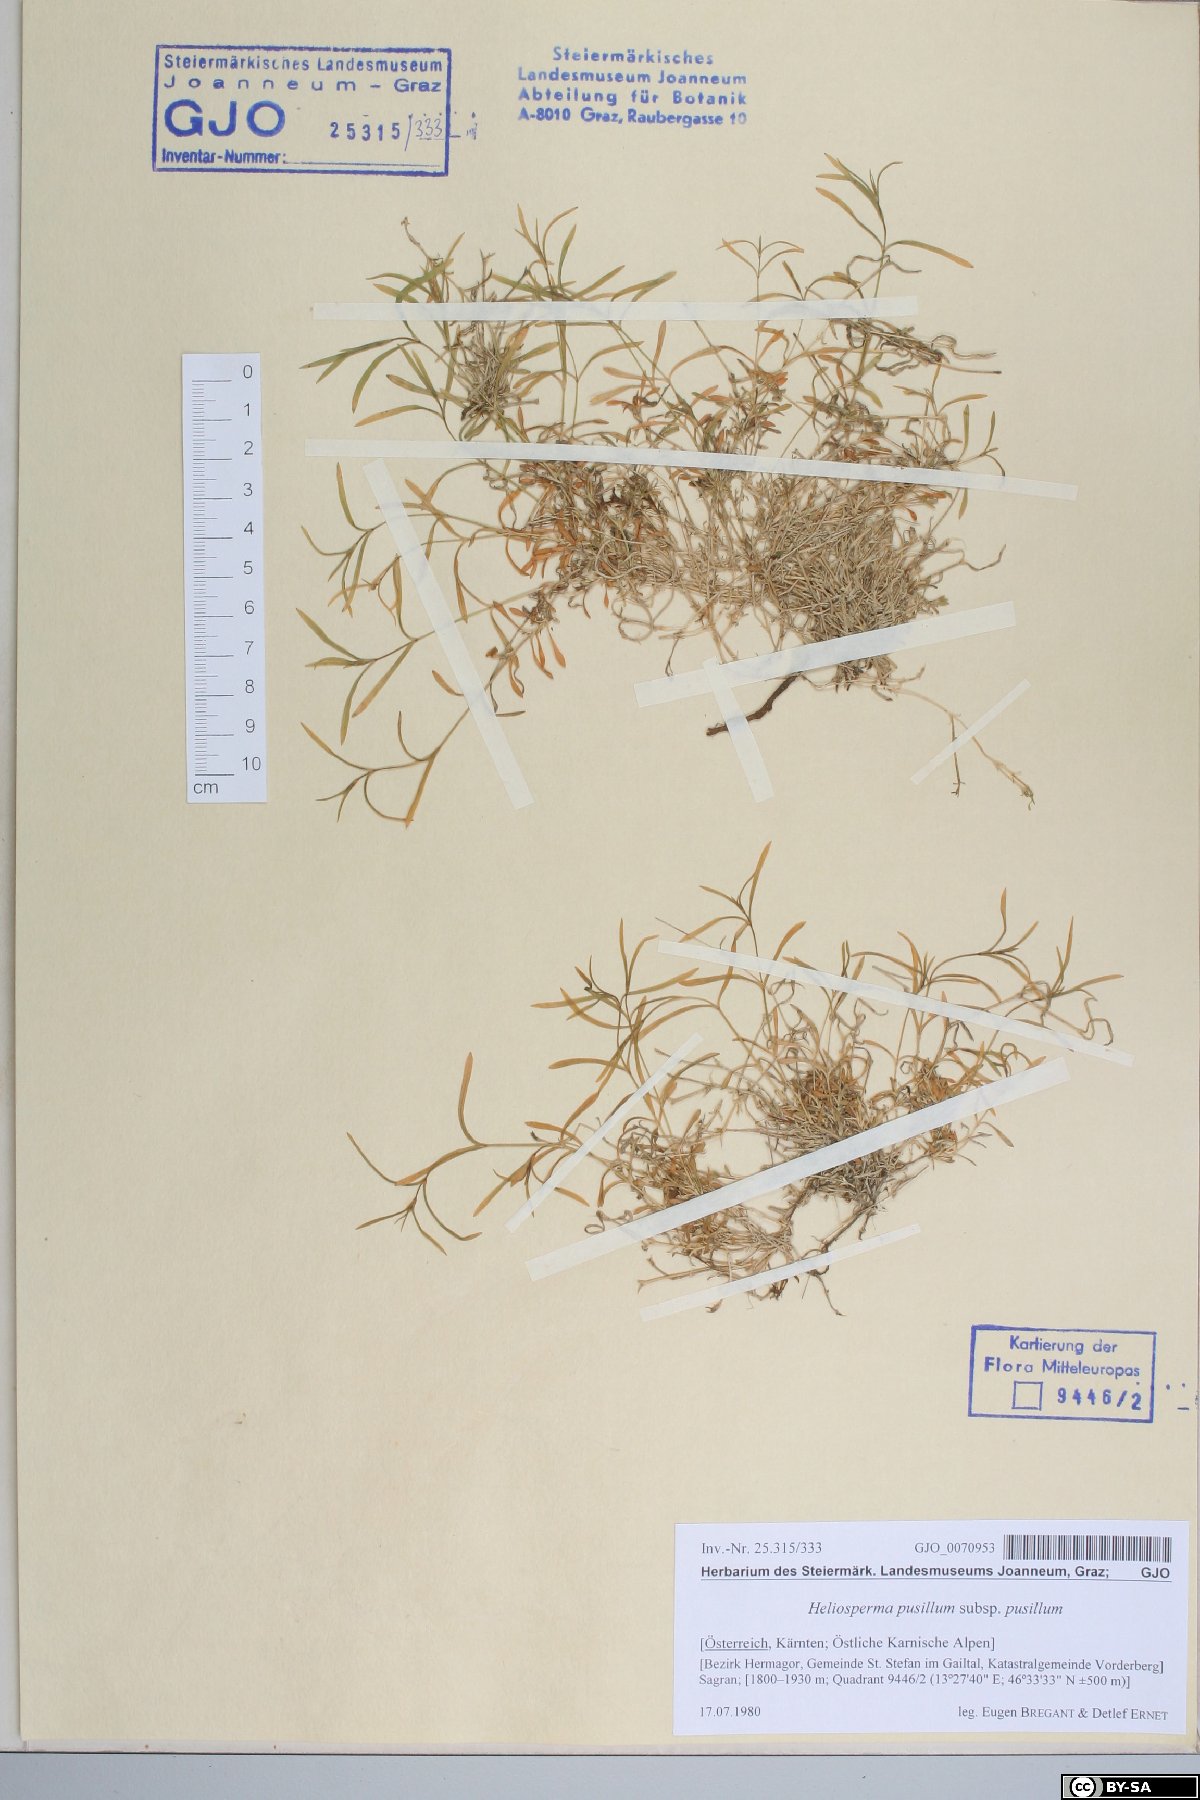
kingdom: Plantae
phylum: Tracheophyta
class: Magnoliopsida
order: Caryophyllales
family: Caryophyllaceae
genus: Heliosperma
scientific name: Heliosperma pusillum
